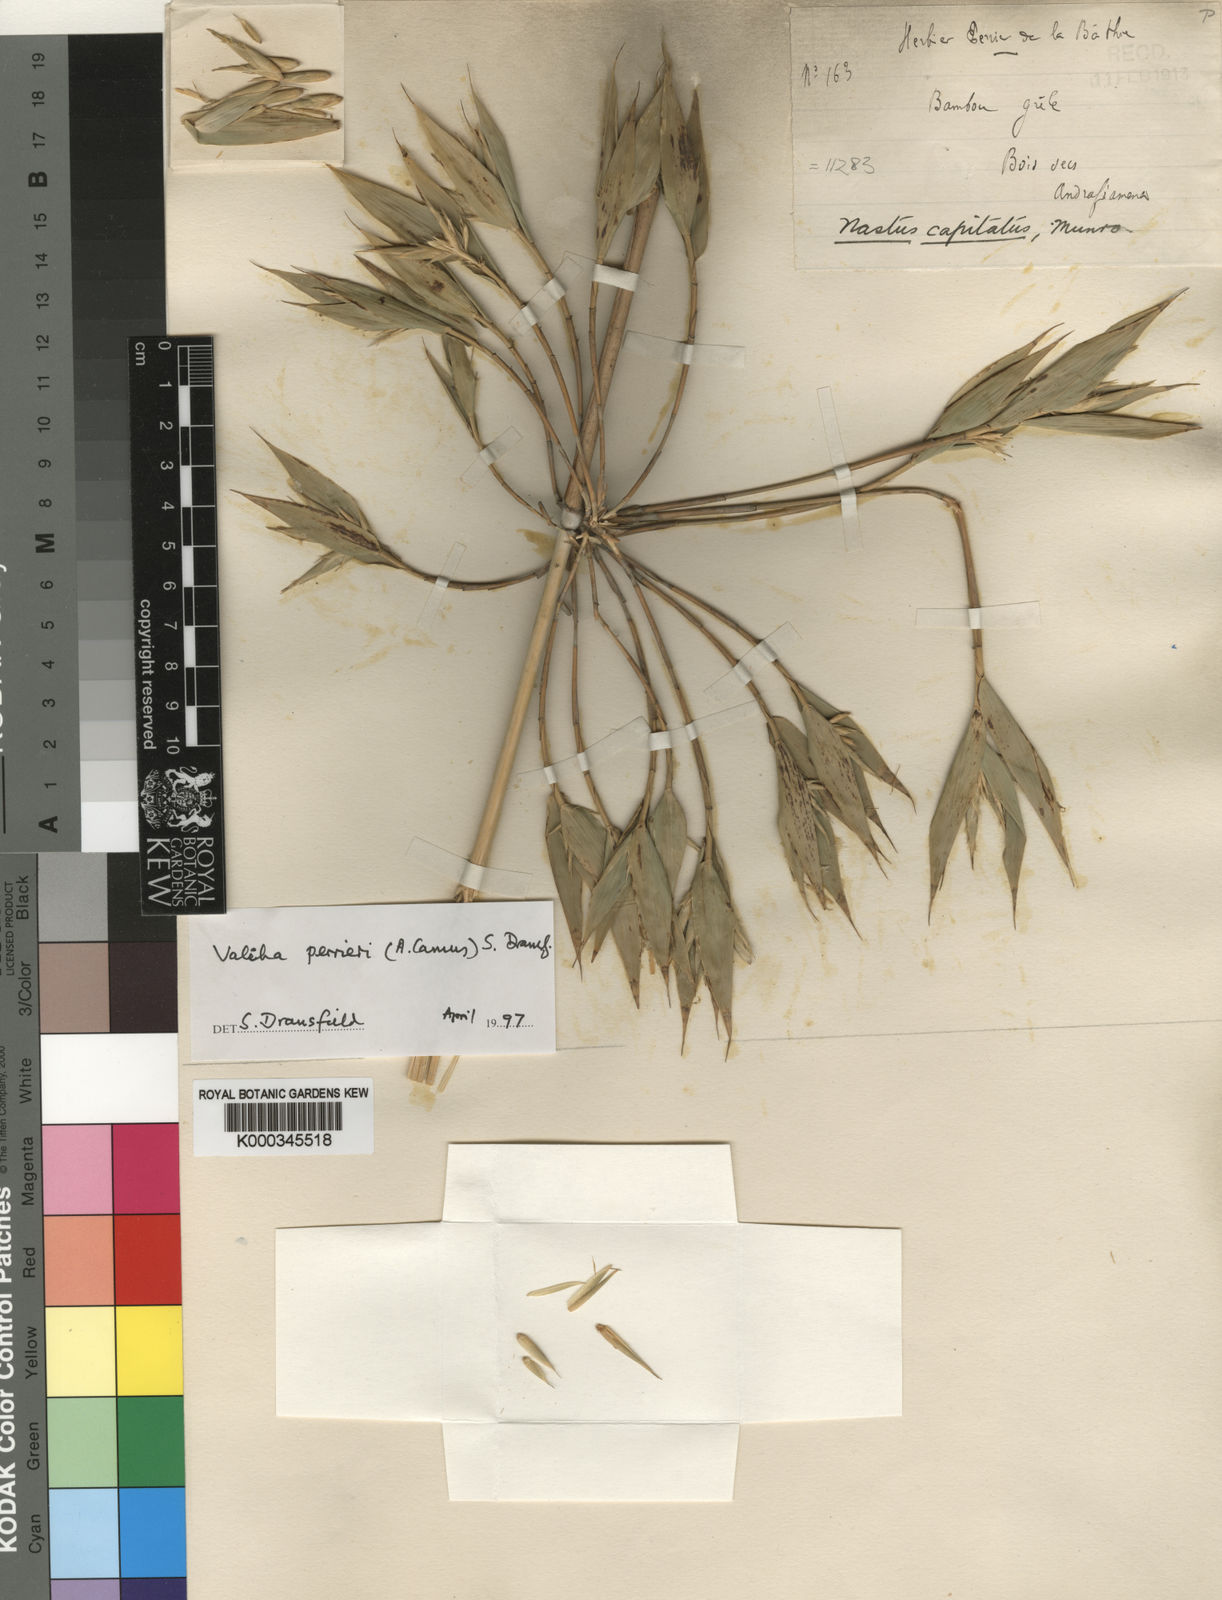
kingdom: Plantae
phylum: Tracheophyta
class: Liliopsida
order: Poales
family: Poaceae
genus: Valiha
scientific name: Valiha perrieri
